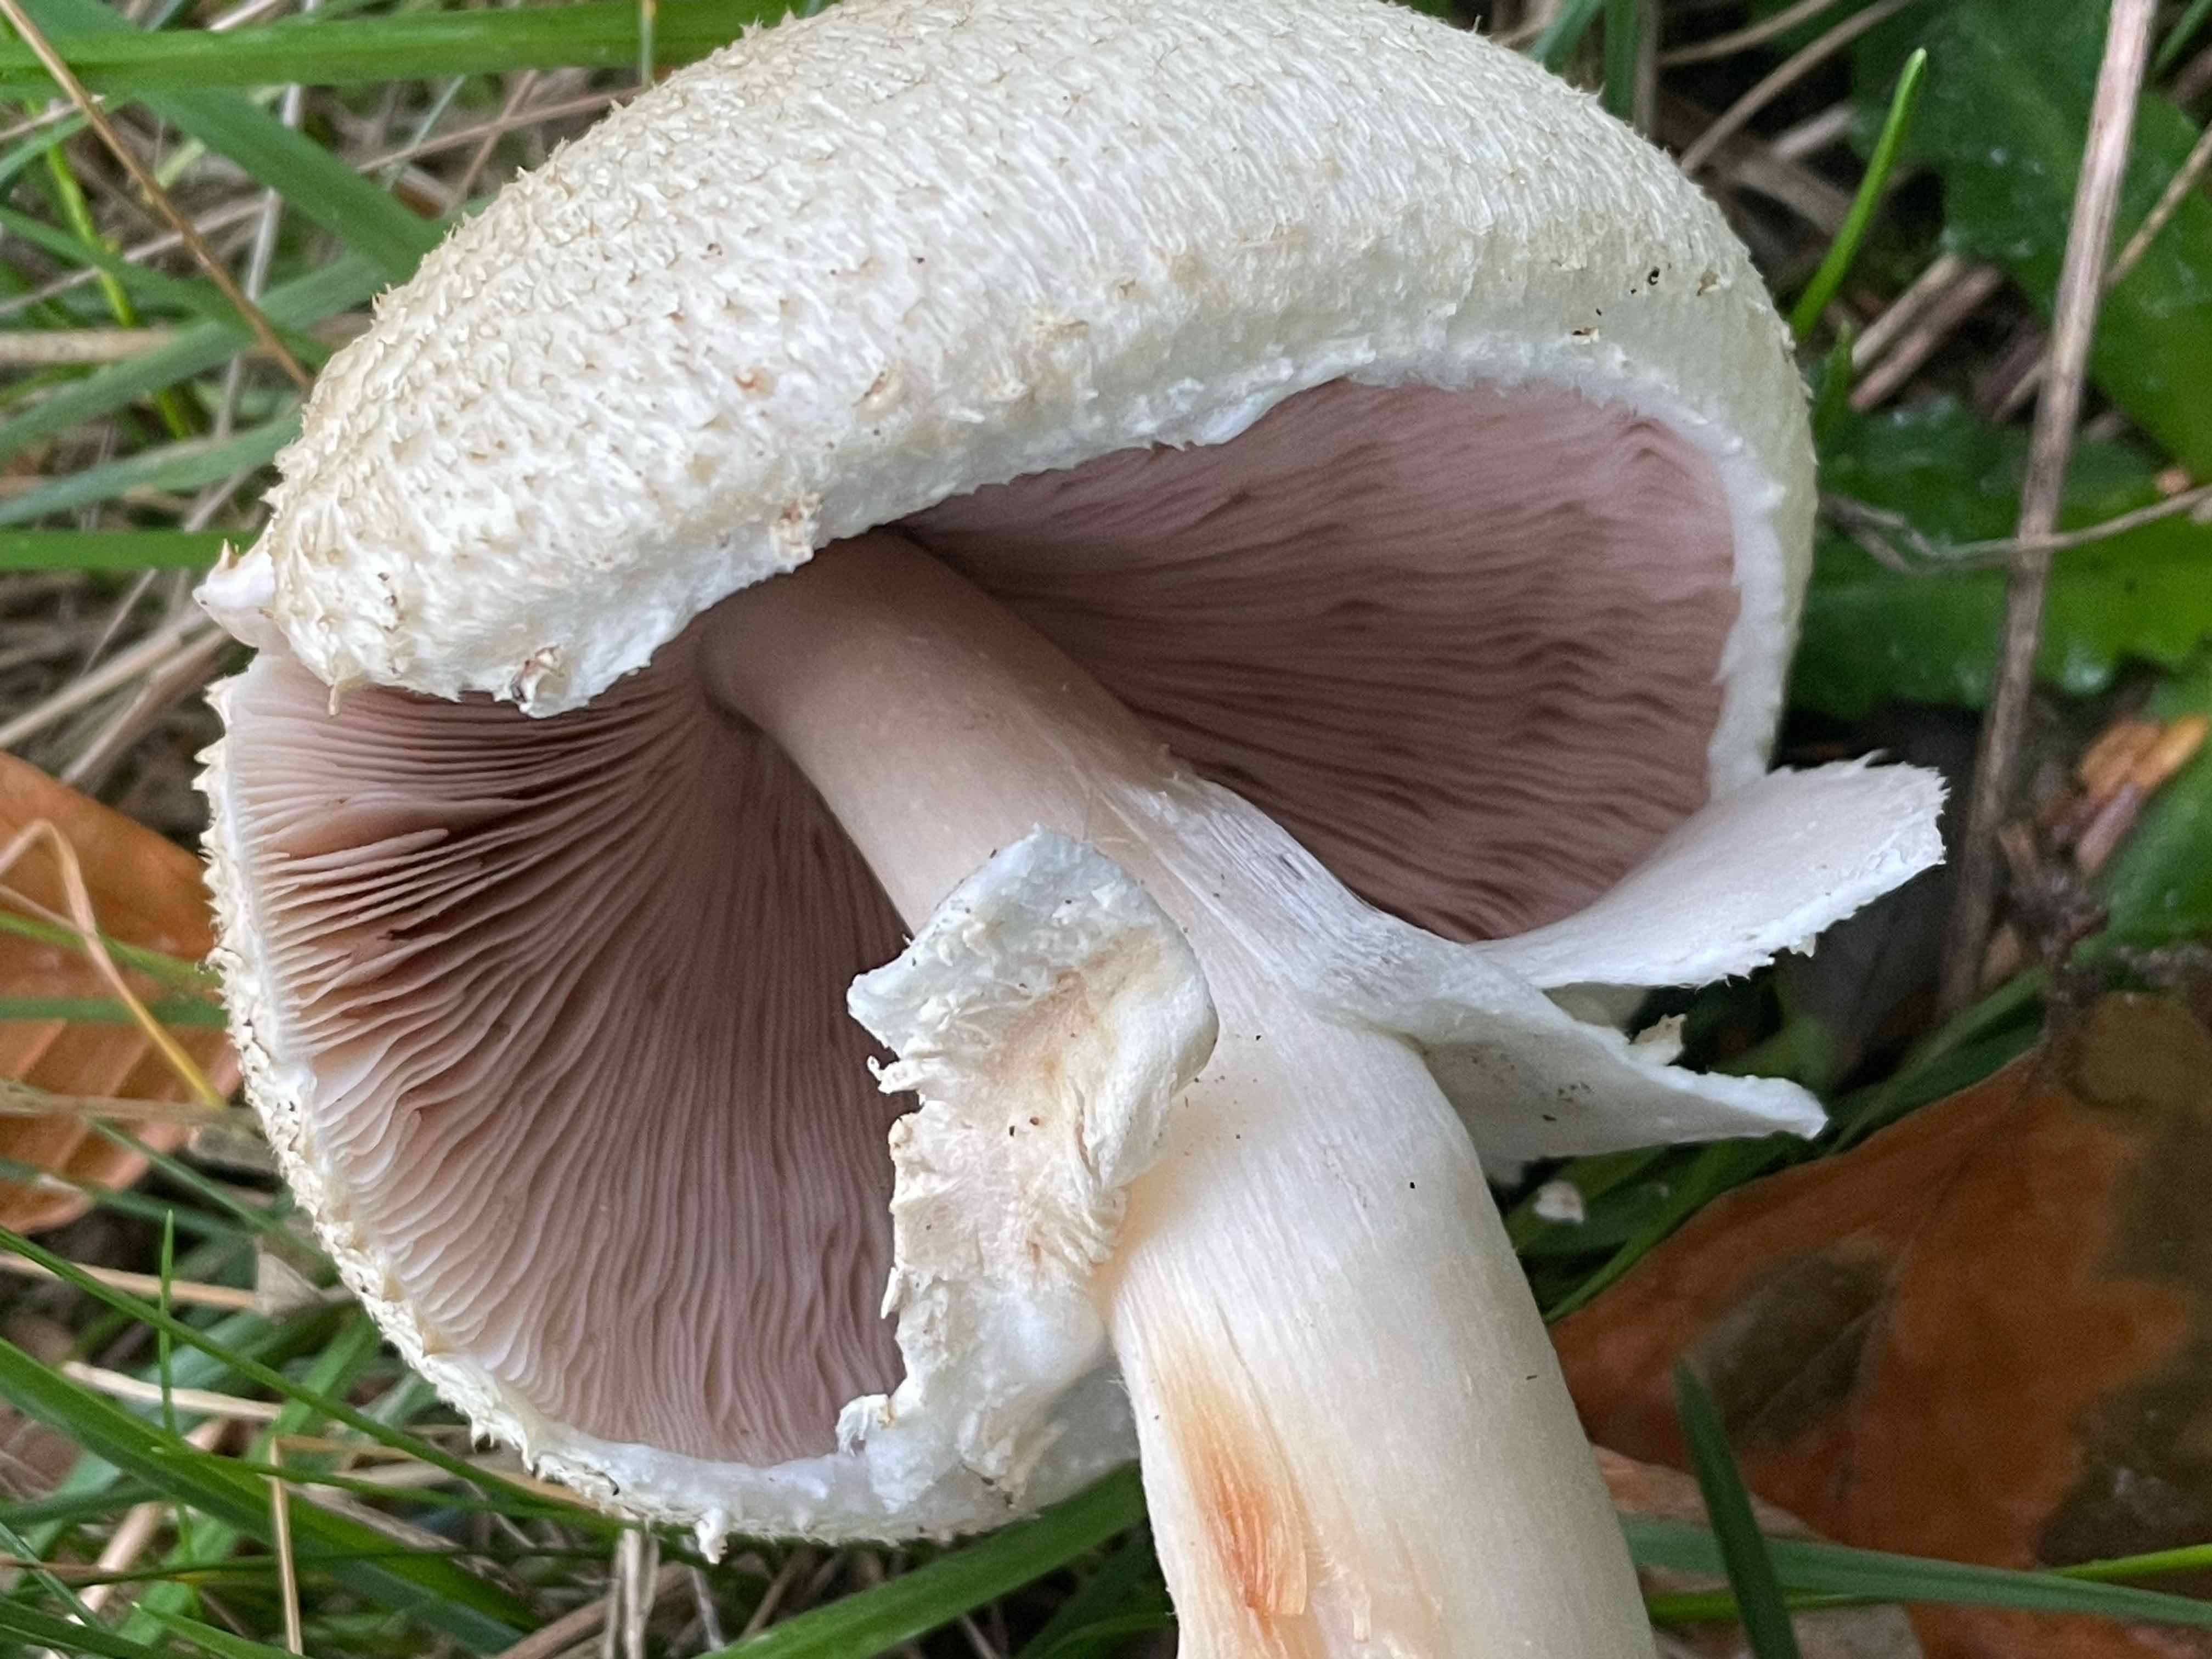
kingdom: Fungi
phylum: Basidiomycota
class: Agaricomycetes
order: Agaricales
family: Agaricaceae
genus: Agaricus
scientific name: Agaricus
